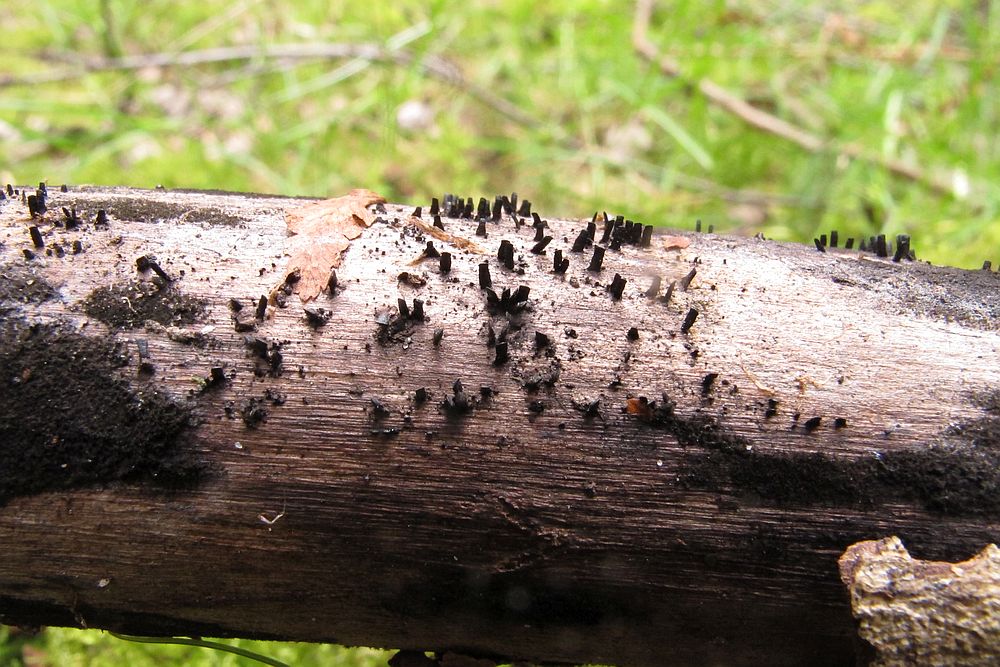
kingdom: Fungi
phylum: Ascomycota
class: Eurotiomycetes
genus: Glyphium
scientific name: Glyphium elatum
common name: kuløkse
